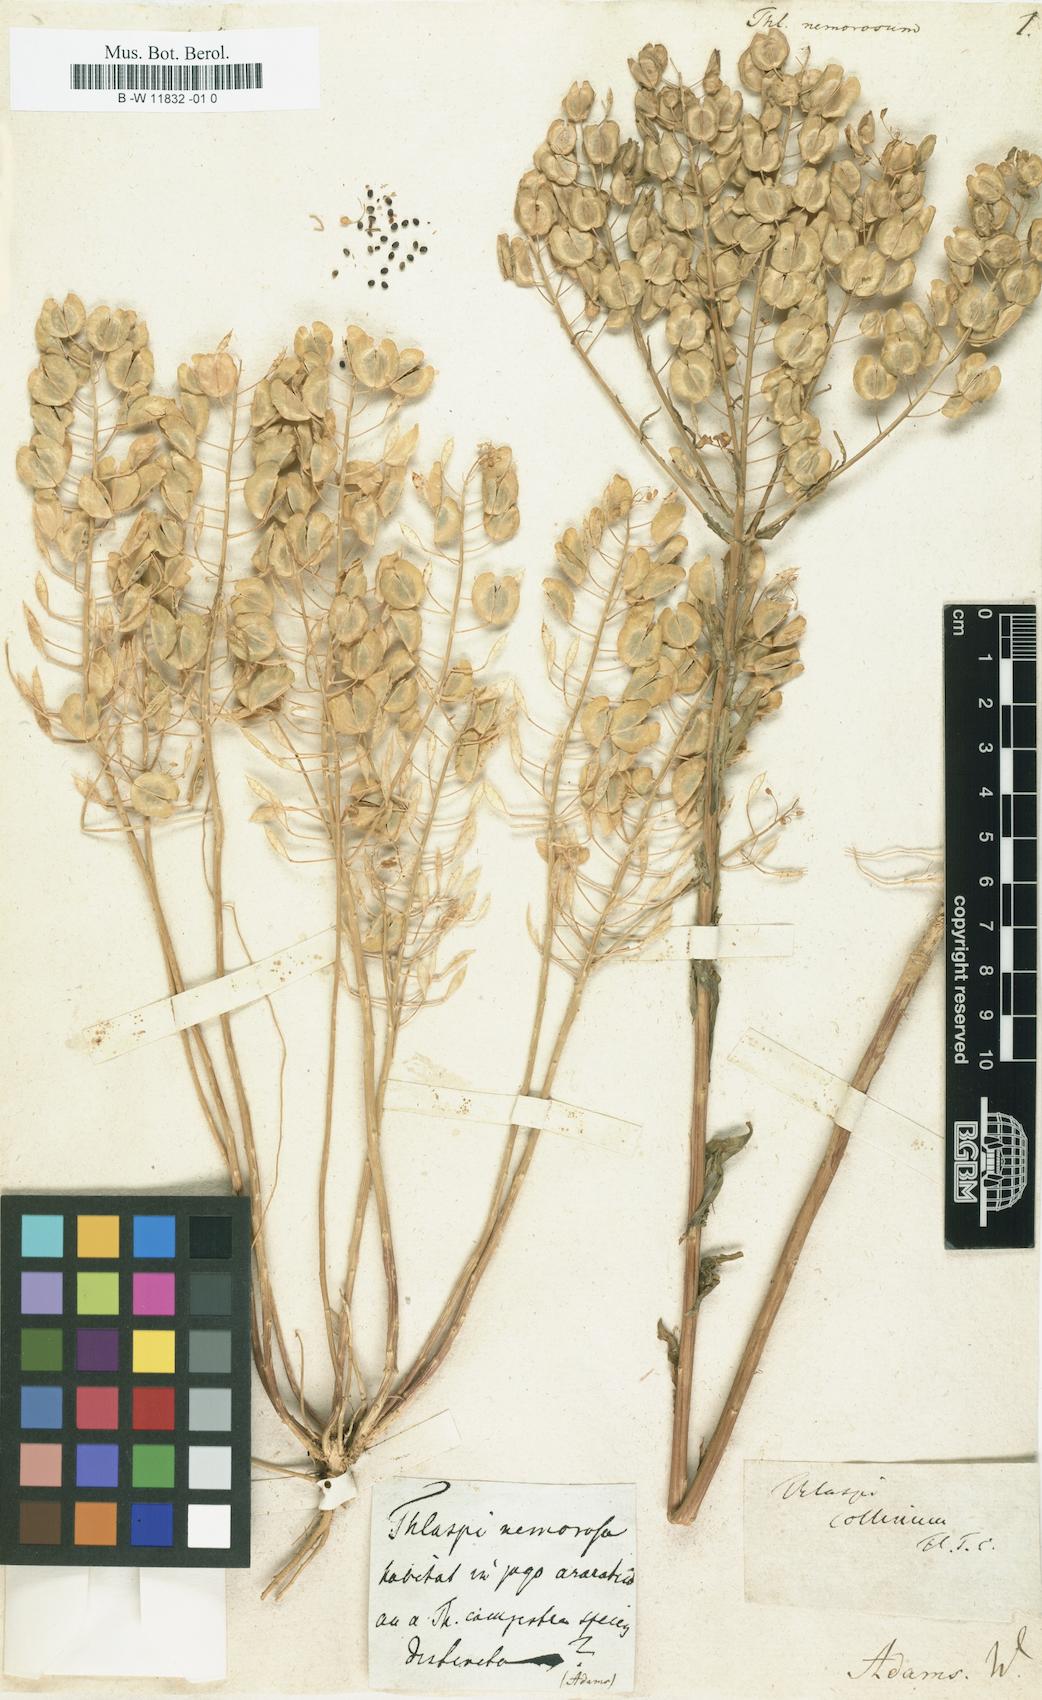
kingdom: Plantae
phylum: Tracheophyta
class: Magnoliopsida
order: Brassicales
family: Brassicaceae
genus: Thlaspi
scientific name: Thlaspi nemorosum
